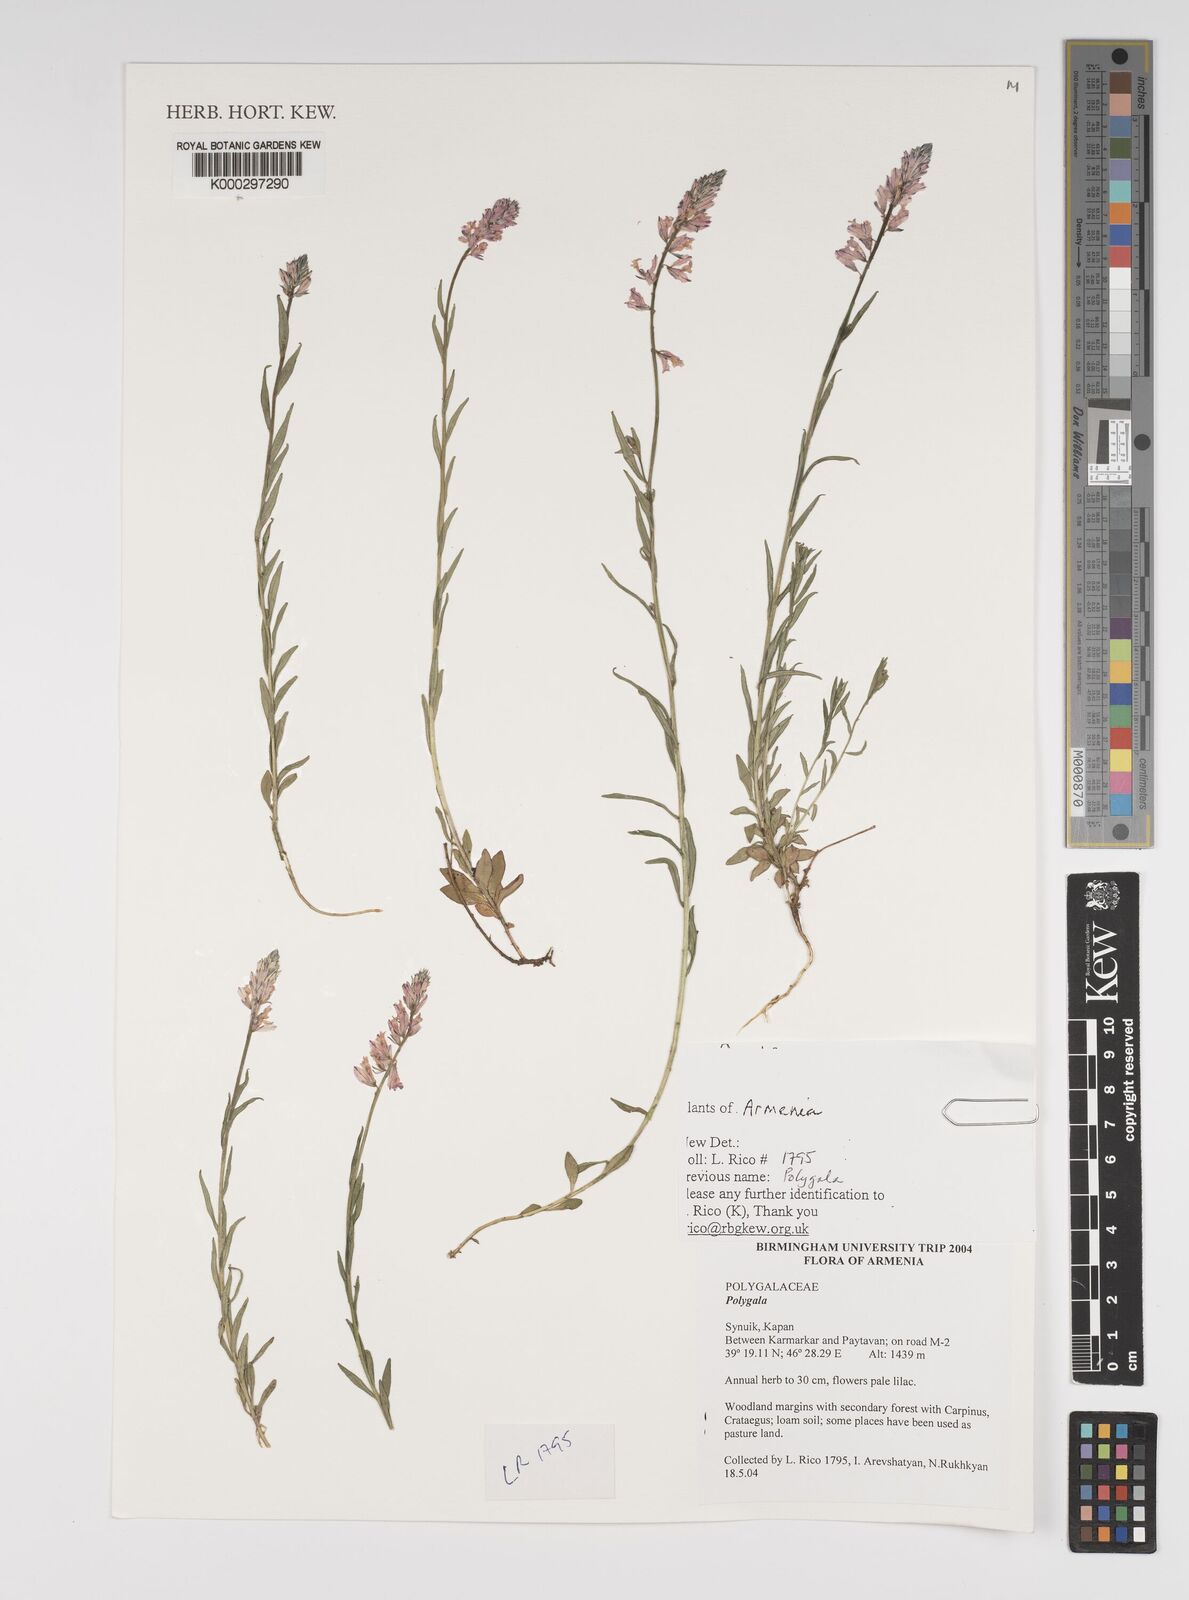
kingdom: Plantae
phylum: Tracheophyta
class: Magnoliopsida
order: Fabales
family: Polygalaceae
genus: Polygala
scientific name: Polygala
